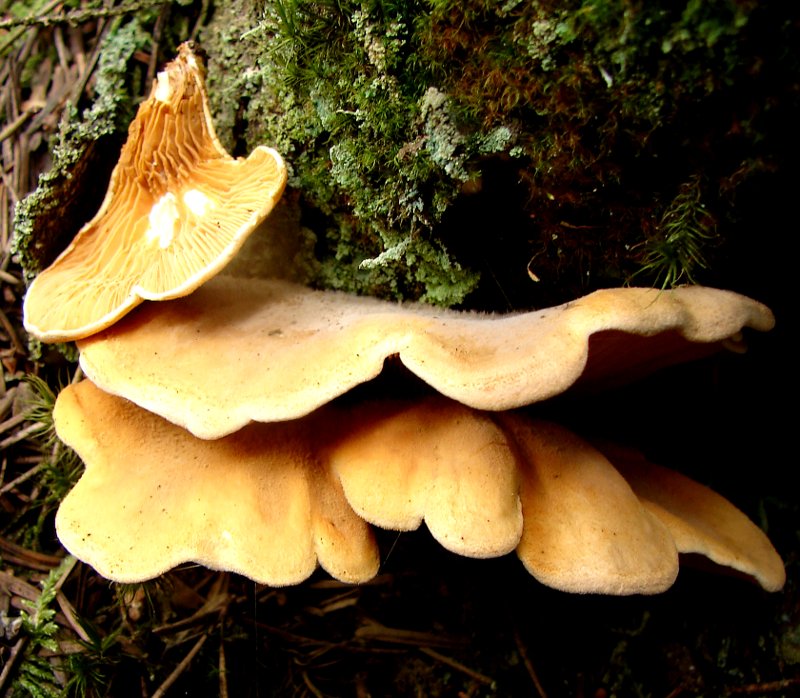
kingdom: Fungi
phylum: Basidiomycota
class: Agaricomycetes
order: Boletales
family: Tapinellaceae
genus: Tapinella
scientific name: Tapinella panuoides
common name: tømmer-viftesvamp
